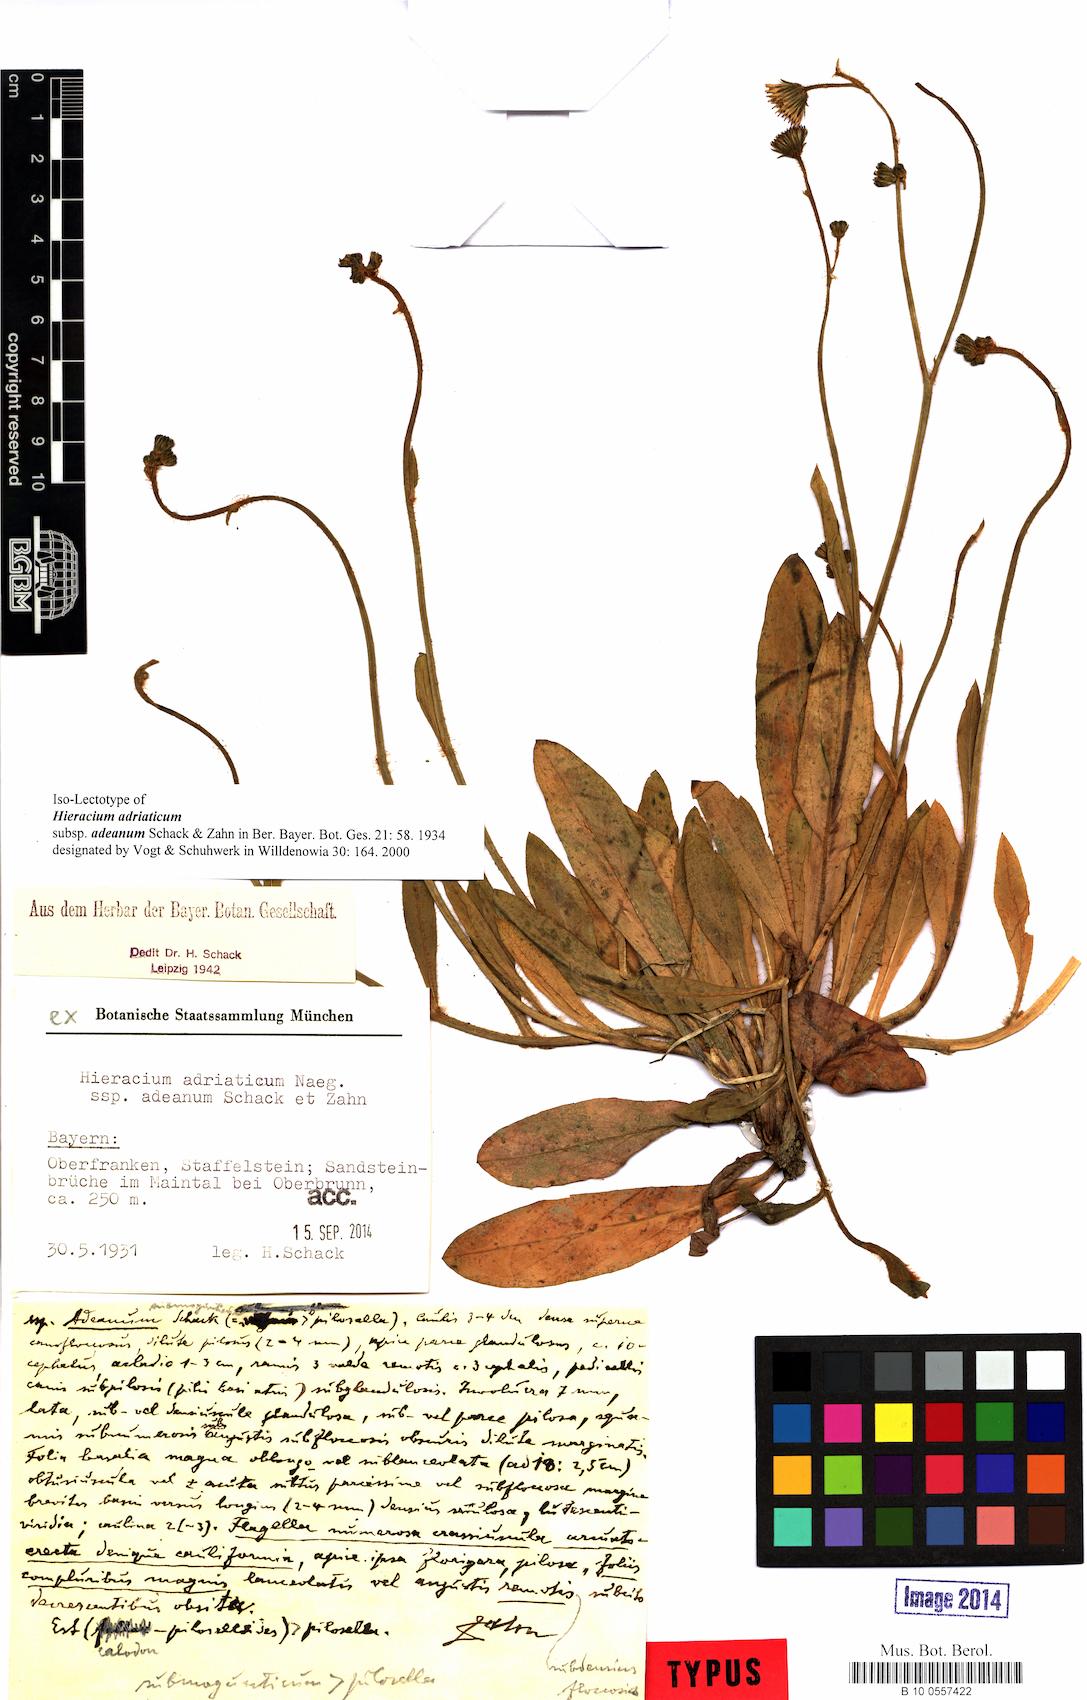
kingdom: Plantae
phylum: Tracheophyta
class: Magnoliopsida
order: Asterales
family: Asteraceae
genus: Pilosella
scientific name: Pilosella visianii
